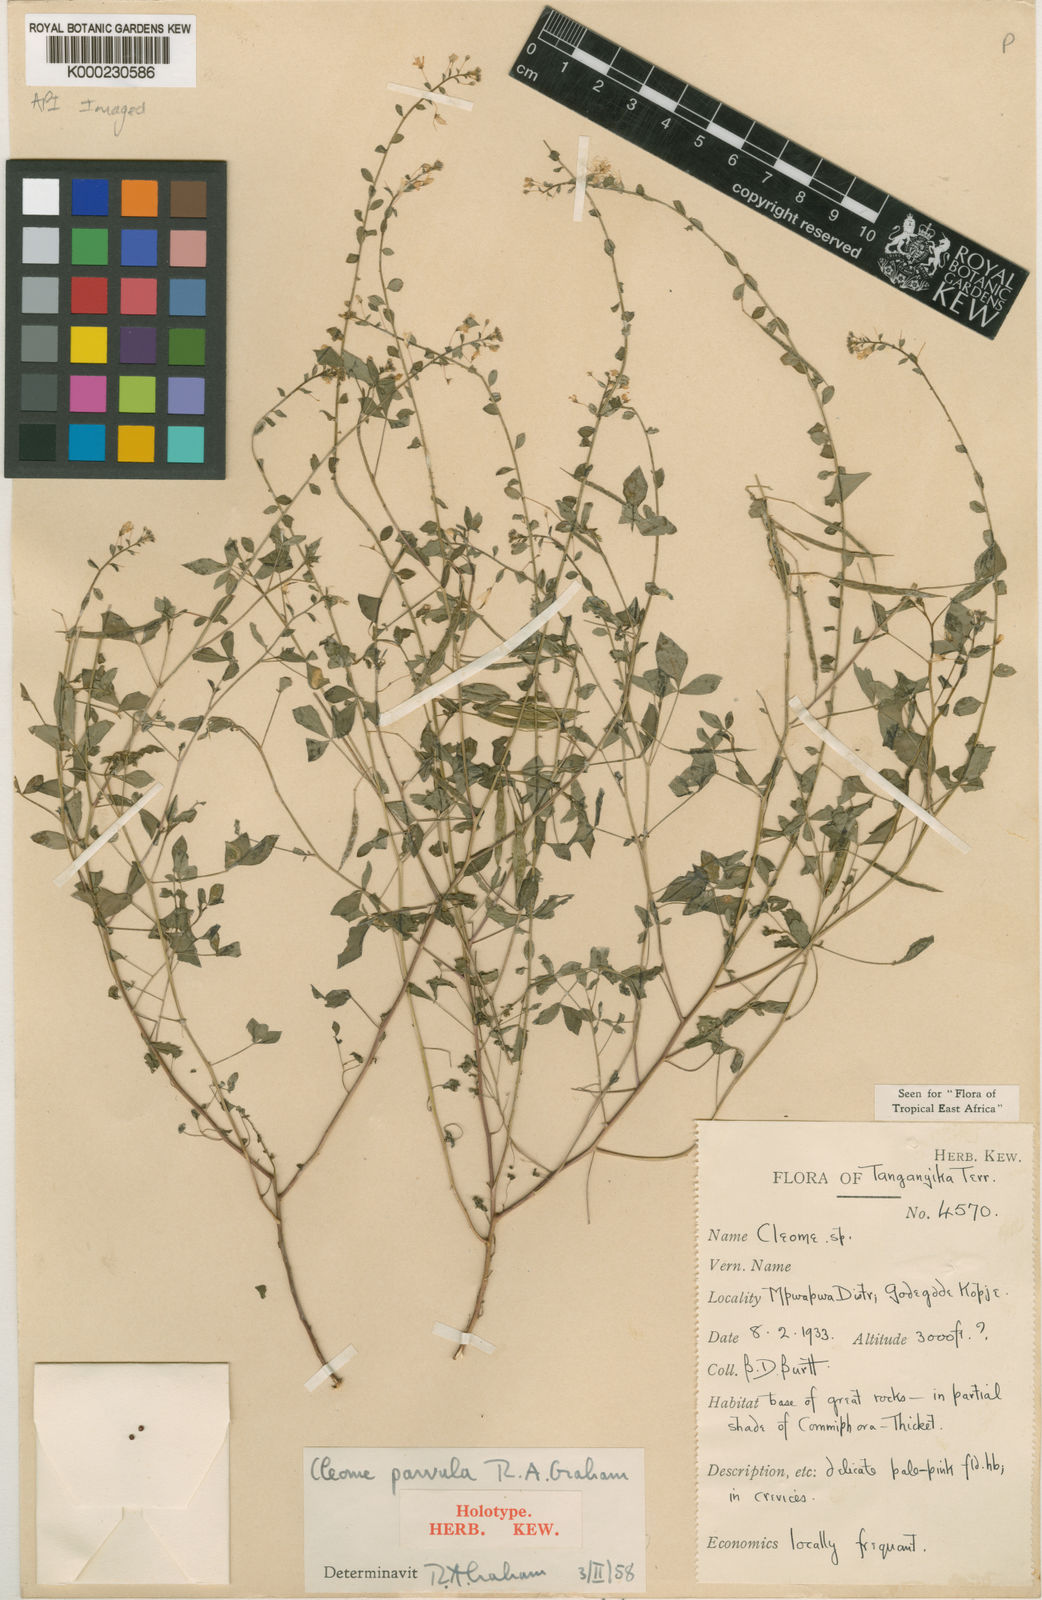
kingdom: Plantae
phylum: Tracheophyta
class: Magnoliopsida
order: Brassicales
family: Cleomaceae
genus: Sieruela
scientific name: Sieruela parvula
